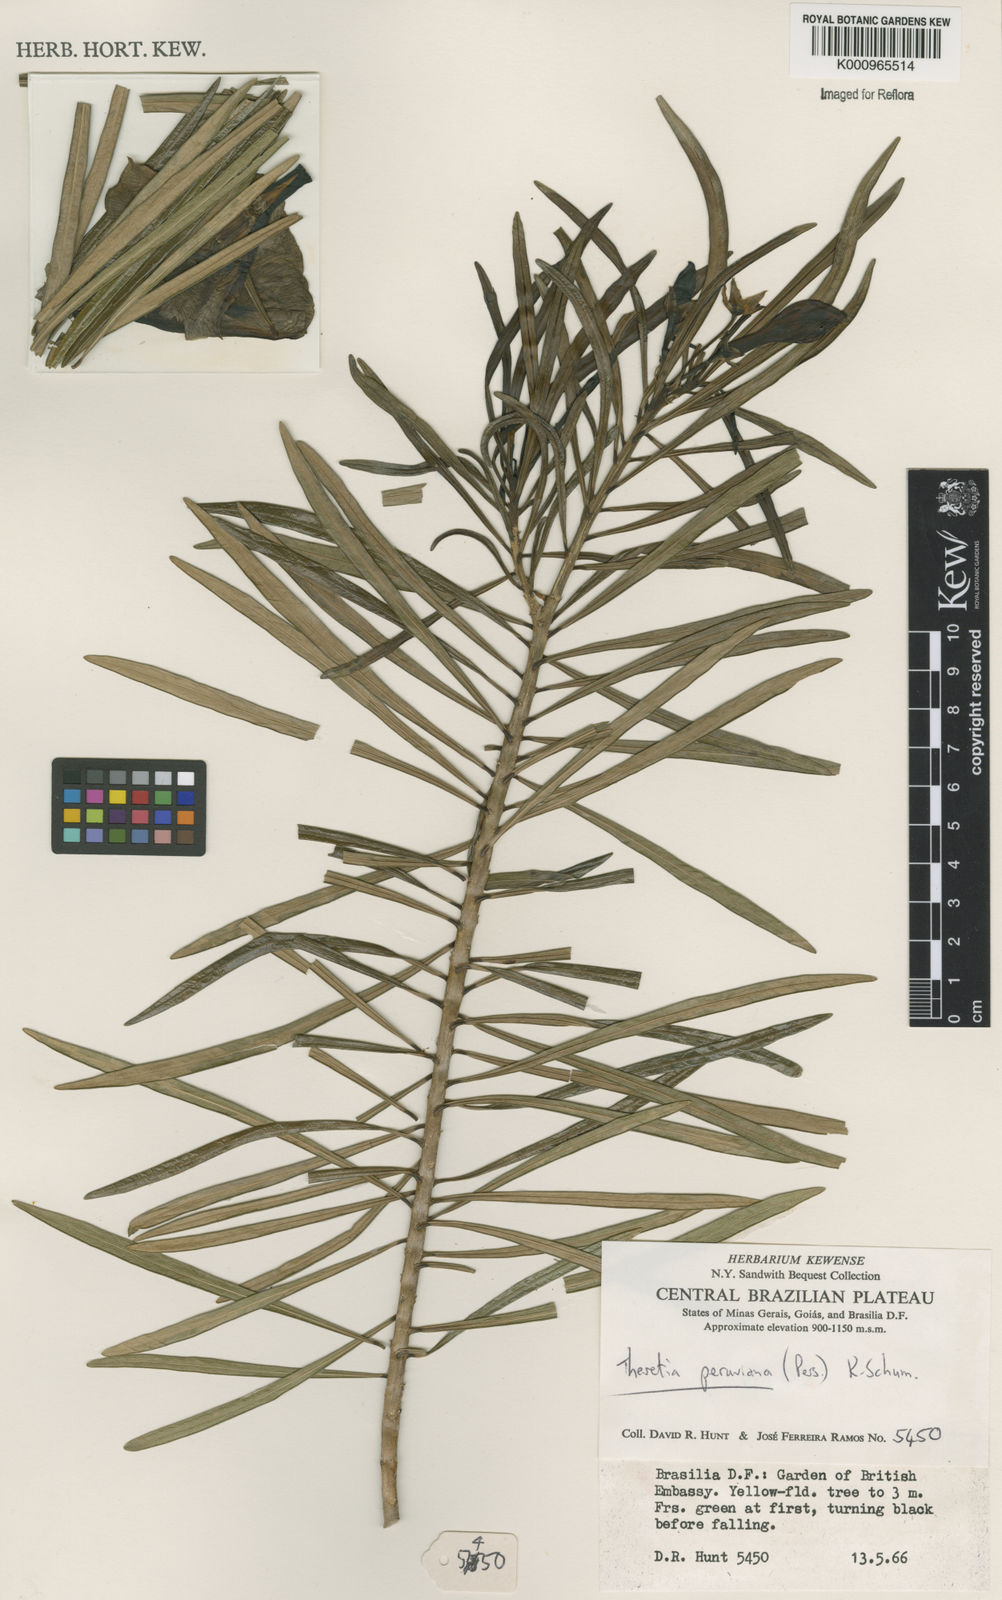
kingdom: Plantae
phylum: Tracheophyta
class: Magnoliopsida
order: Gentianales
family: Apocynaceae
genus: Cascabela
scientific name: Cascabela thevetia
